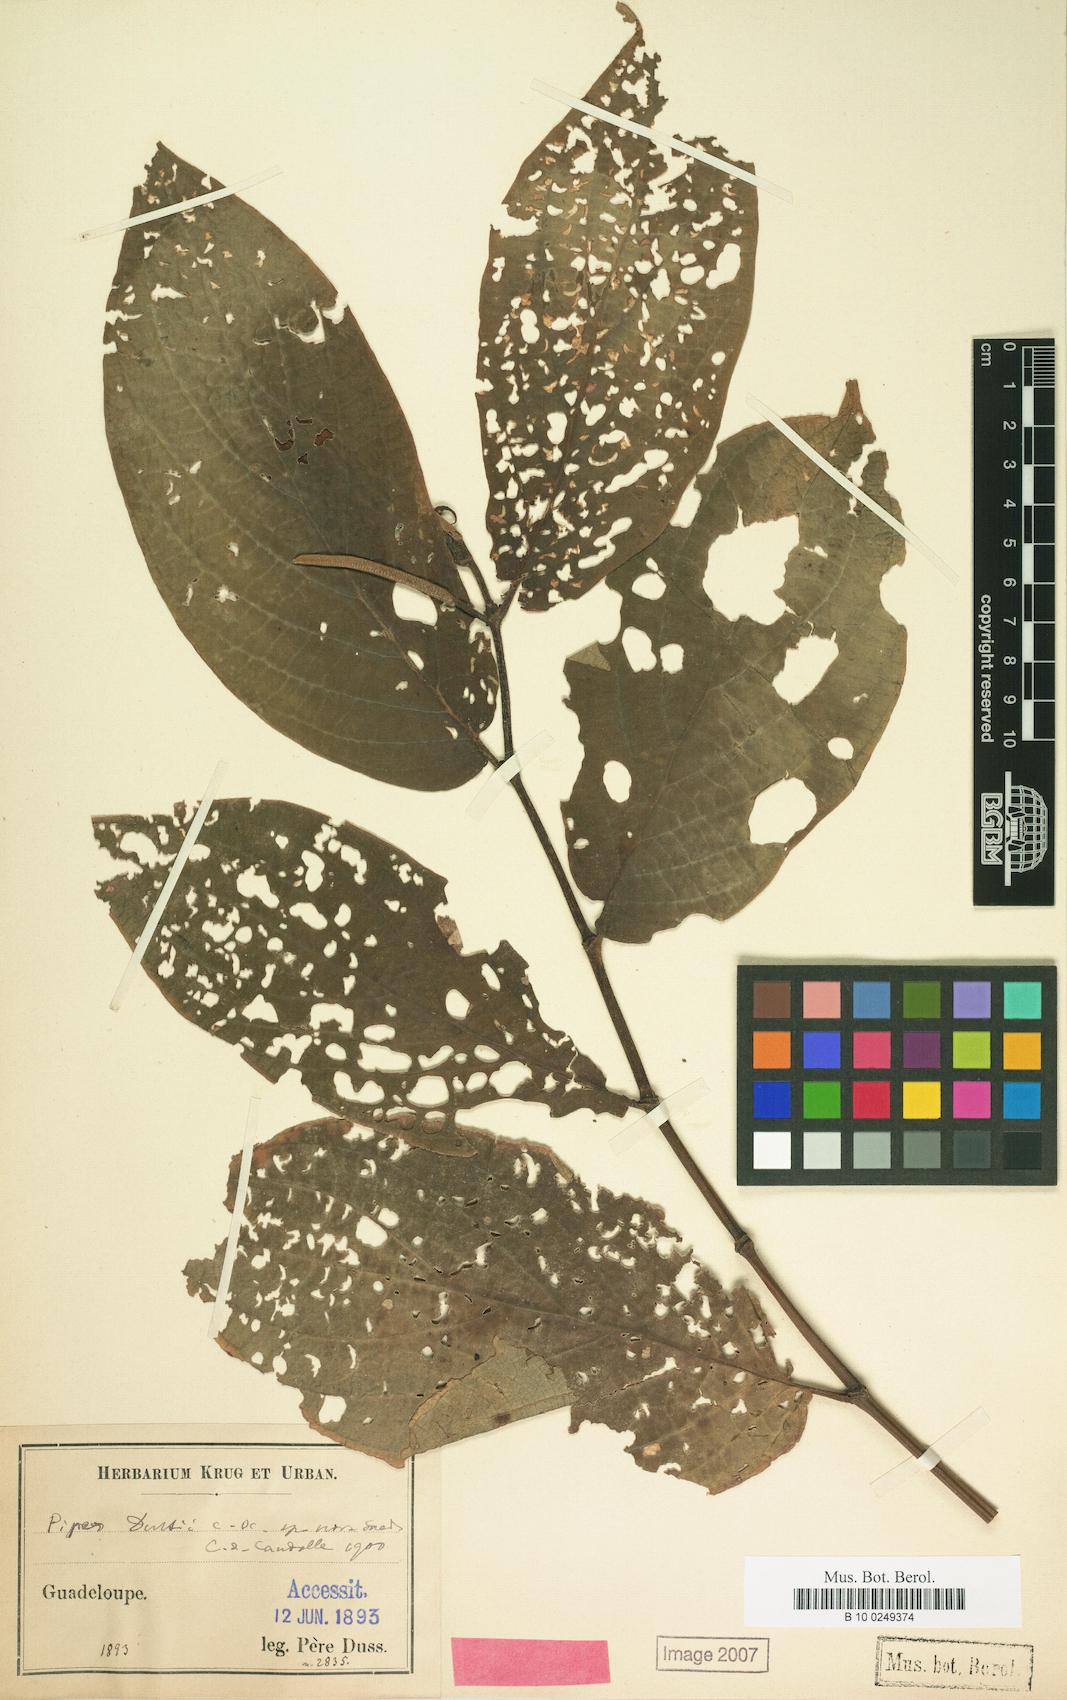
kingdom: Plantae
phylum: Tracheophyta
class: Magnoliopsida
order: Piperales
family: Piperaceae
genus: Piper
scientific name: Piper dussii
